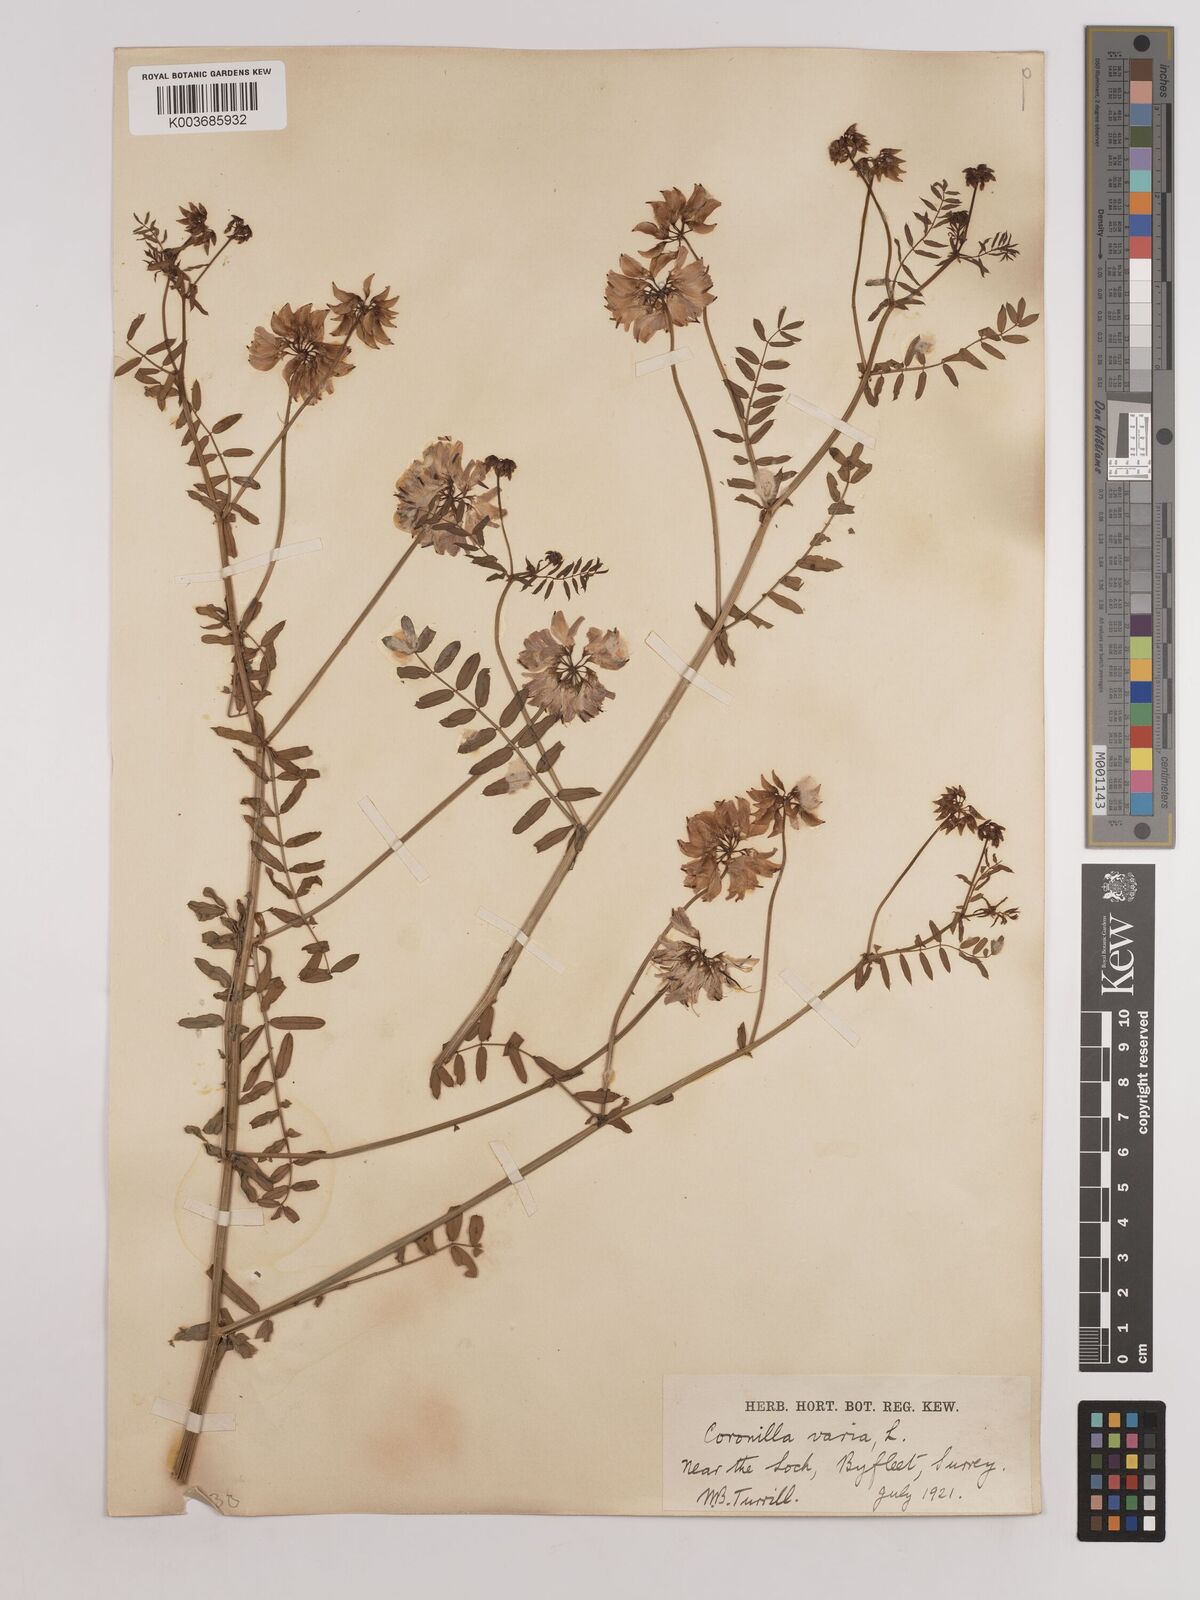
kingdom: Plantae
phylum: Tracheophyta
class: Magnoliopsida
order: Fabales
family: Fabaceae
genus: Coronilla
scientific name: Coronilla varia
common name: Crownvetch
